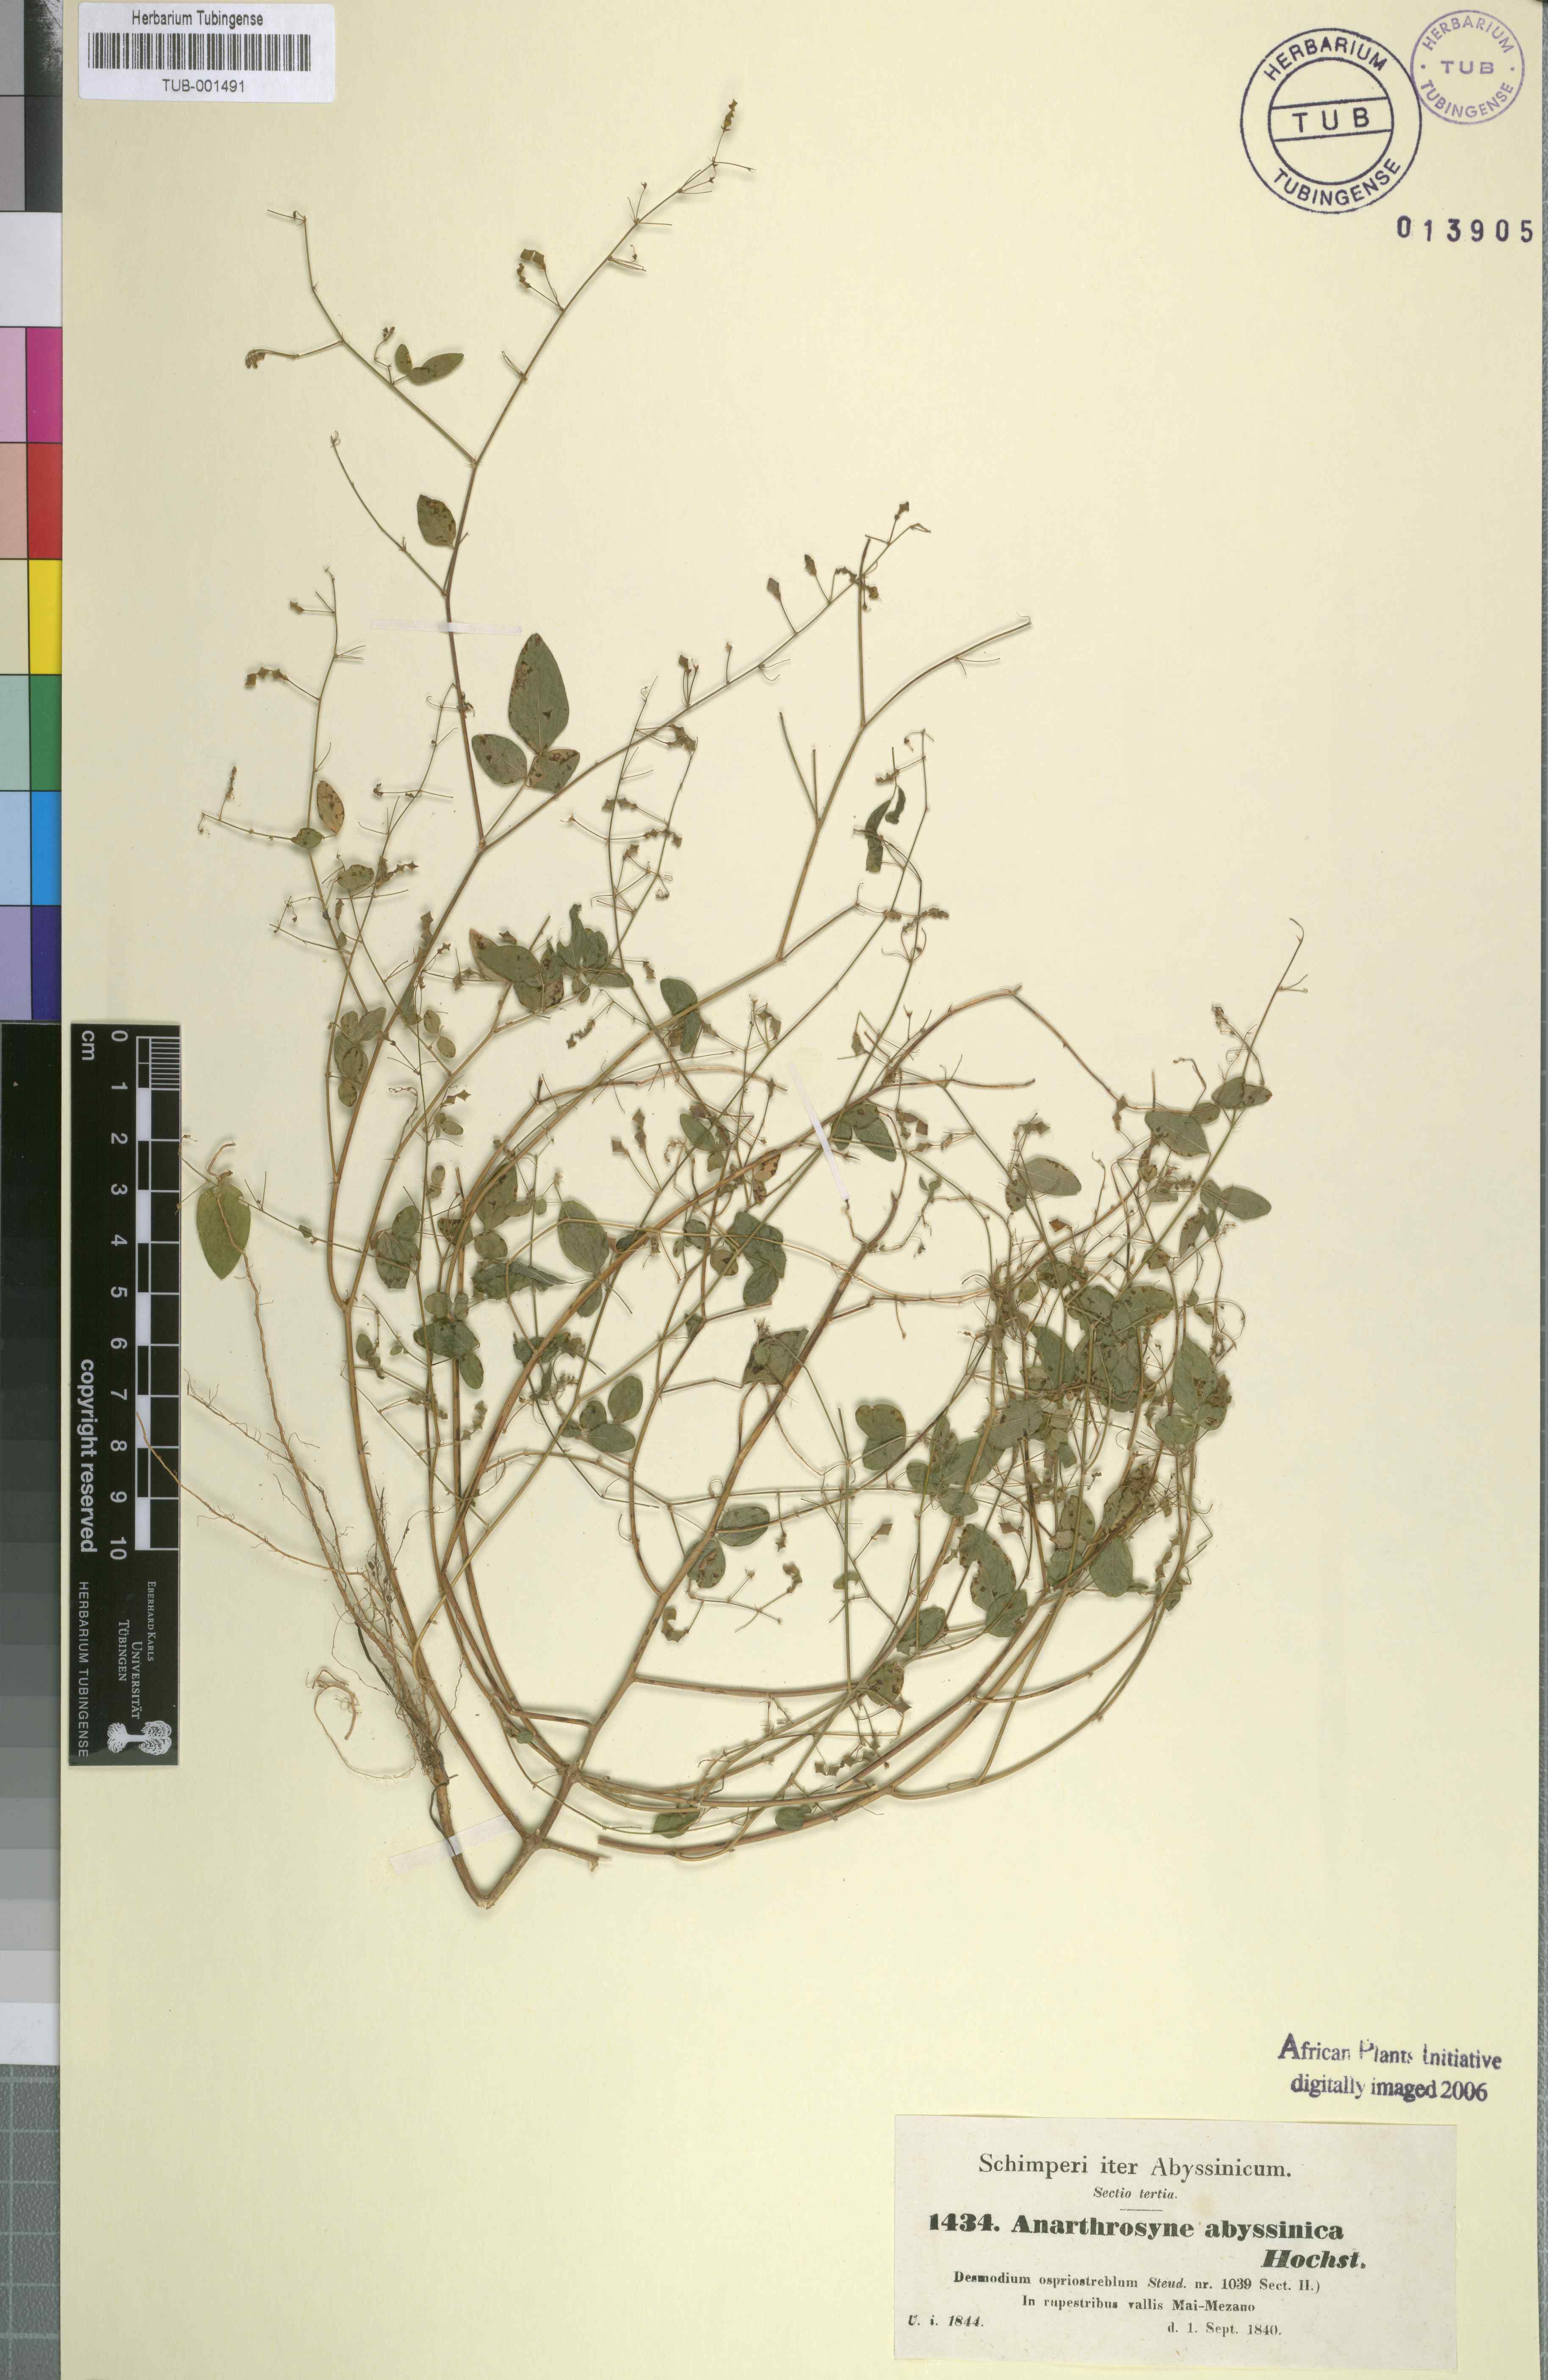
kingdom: Plantae
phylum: Tracheophyta
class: Magnoliopsida
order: Fabales
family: Fabaceae
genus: Desmodium
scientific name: Desmodium procumbens
